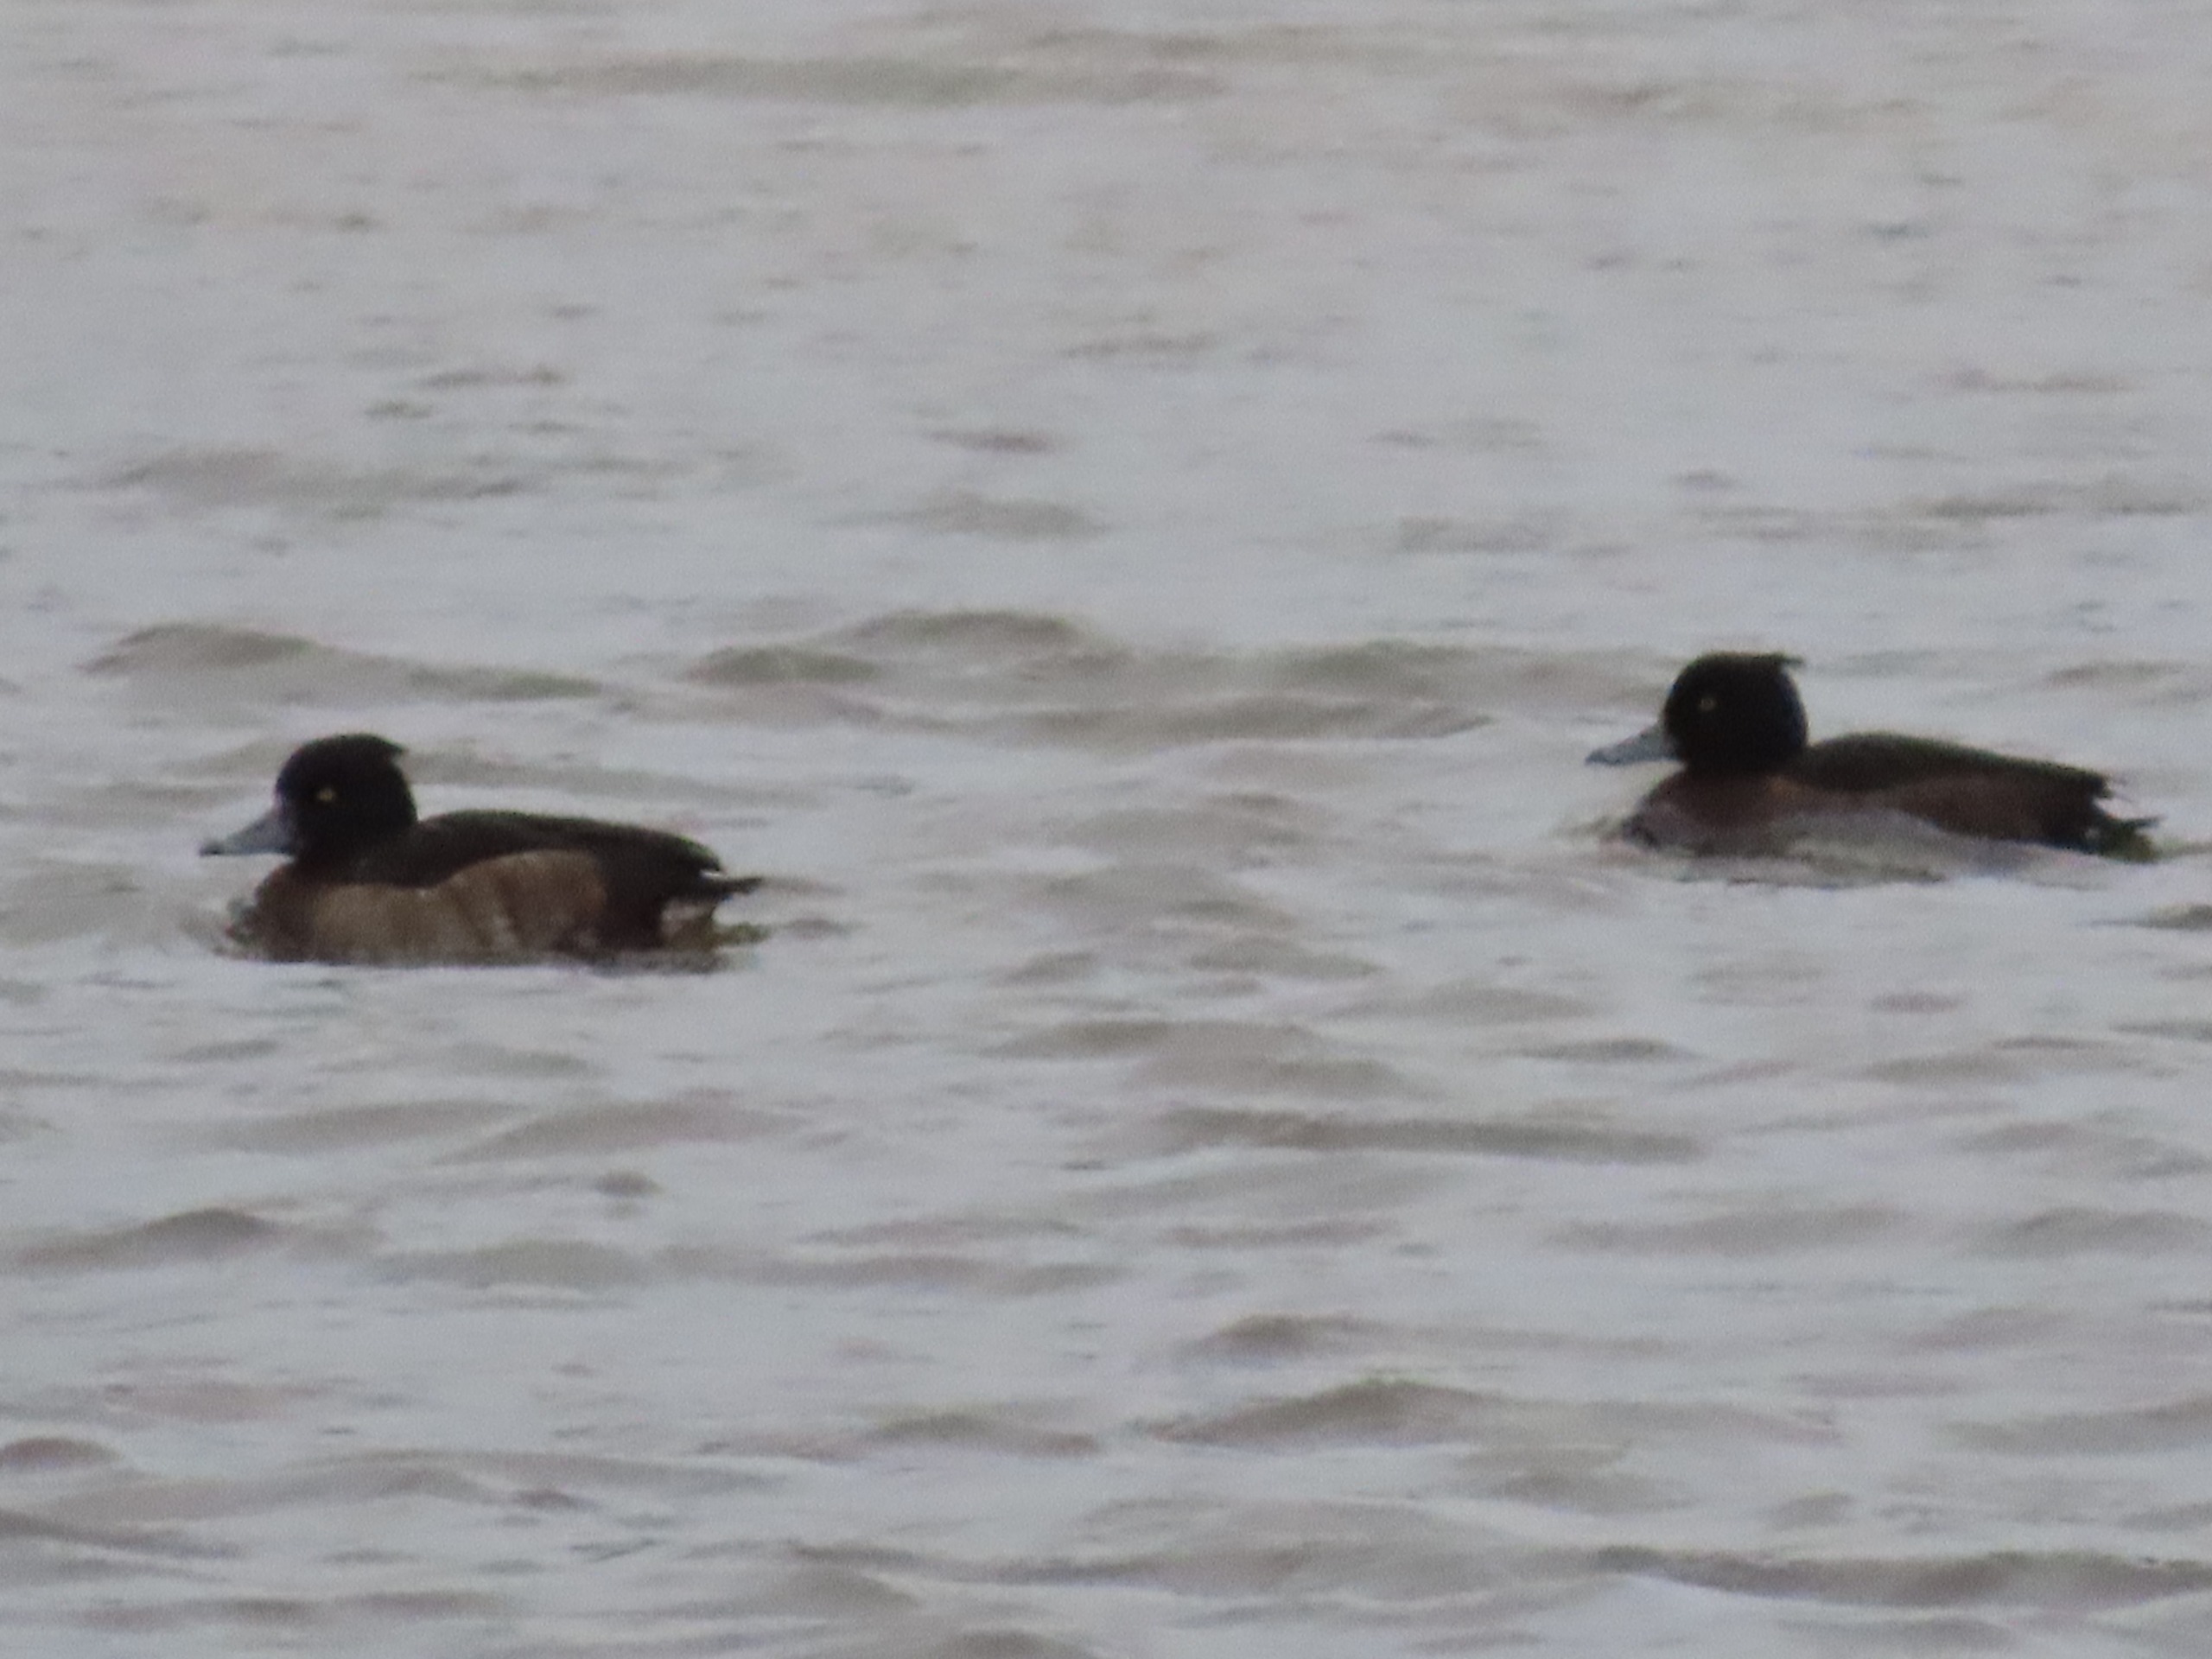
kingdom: Animalia
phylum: Chordata
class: Aves
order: Anseriformes
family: Anatidae
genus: Aythya
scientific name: Aythya fuligula
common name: Troldand
